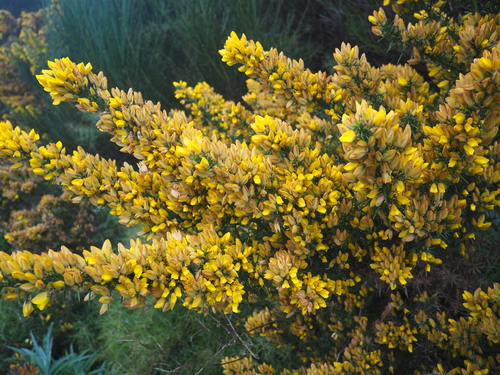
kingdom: Plantae
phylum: Tracheophyta
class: Magnoliopsida
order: Fabales
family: Fabaceae
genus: Ulex
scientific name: Ulex europaeus
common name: Common gorse
